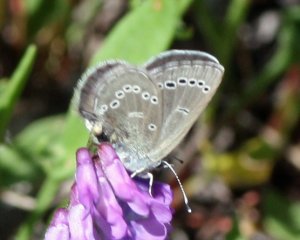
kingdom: Animalia
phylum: Arthropoda
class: Insecta
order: Lepidoptera
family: Lycaenidae
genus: Glaucopsyche
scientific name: Glaucopsyche lygdamus
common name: Silvery Blue
